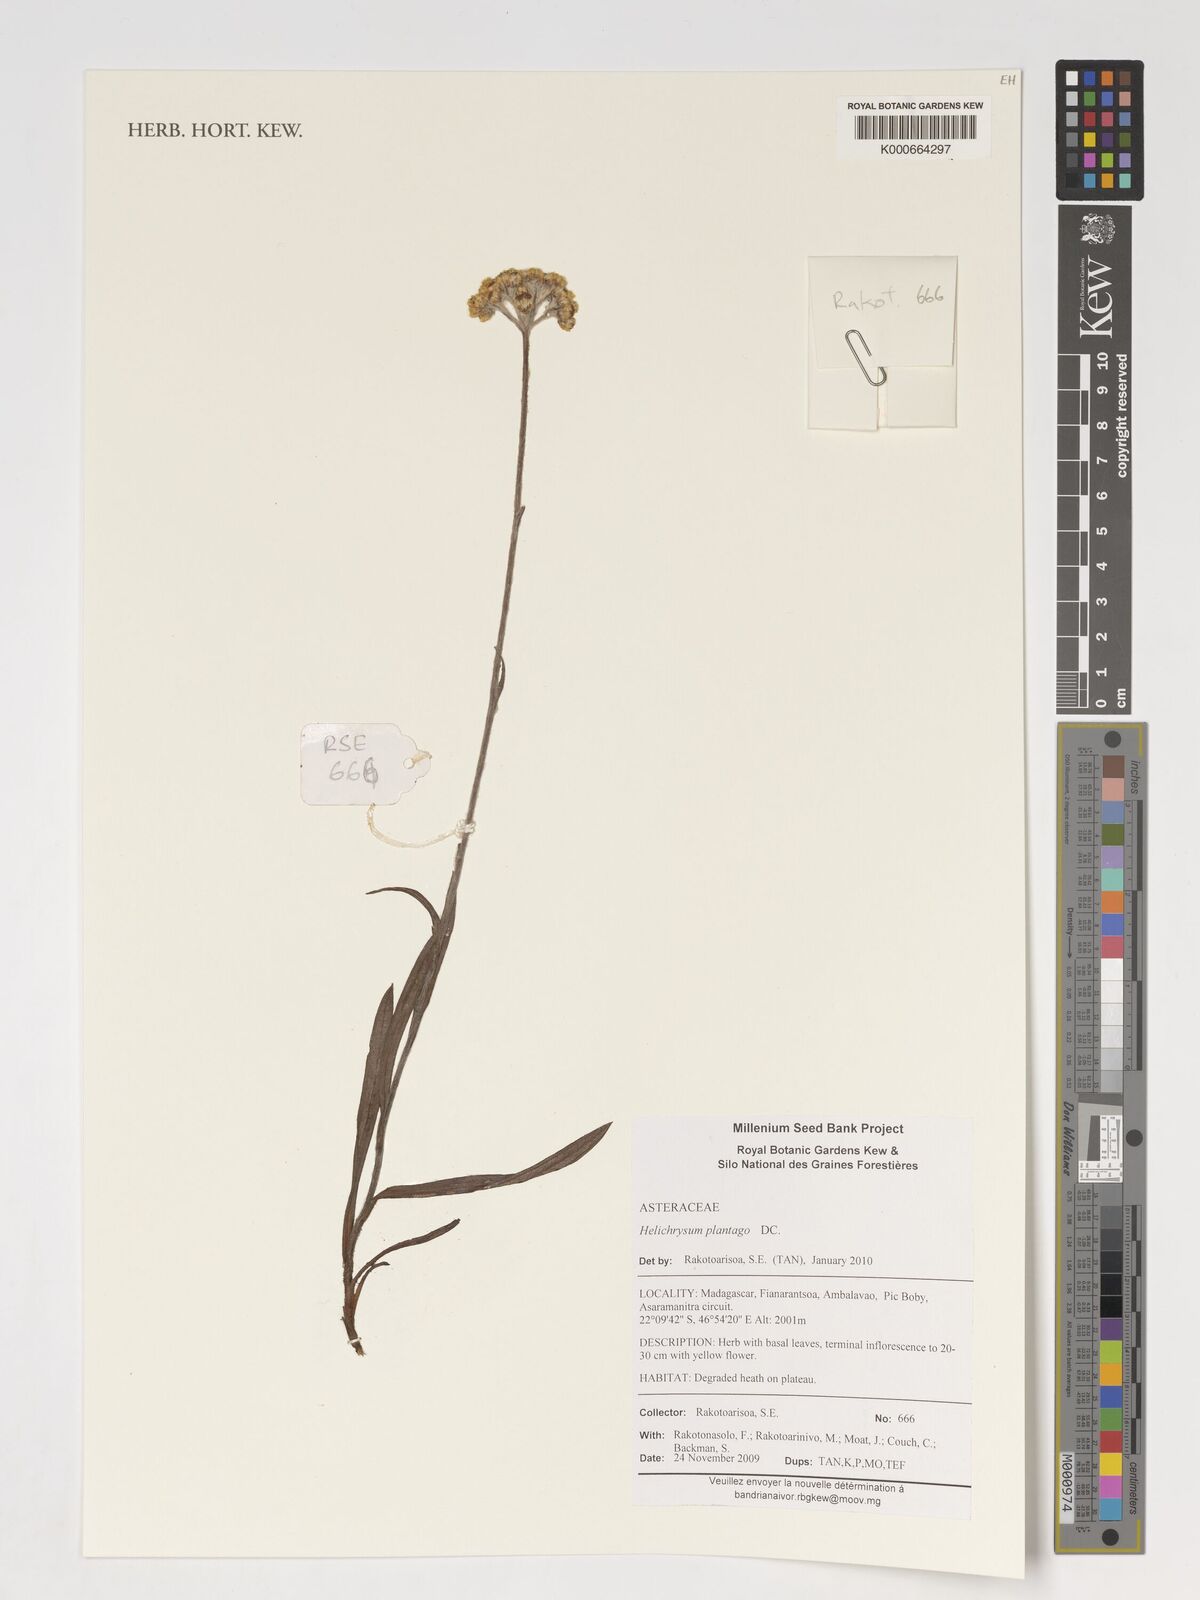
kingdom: Plantae
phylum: Tracheophyta
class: Magnoliopsida
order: Asterales
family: Asteraceae
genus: Helichrysum
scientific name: Helichrysum plantago
